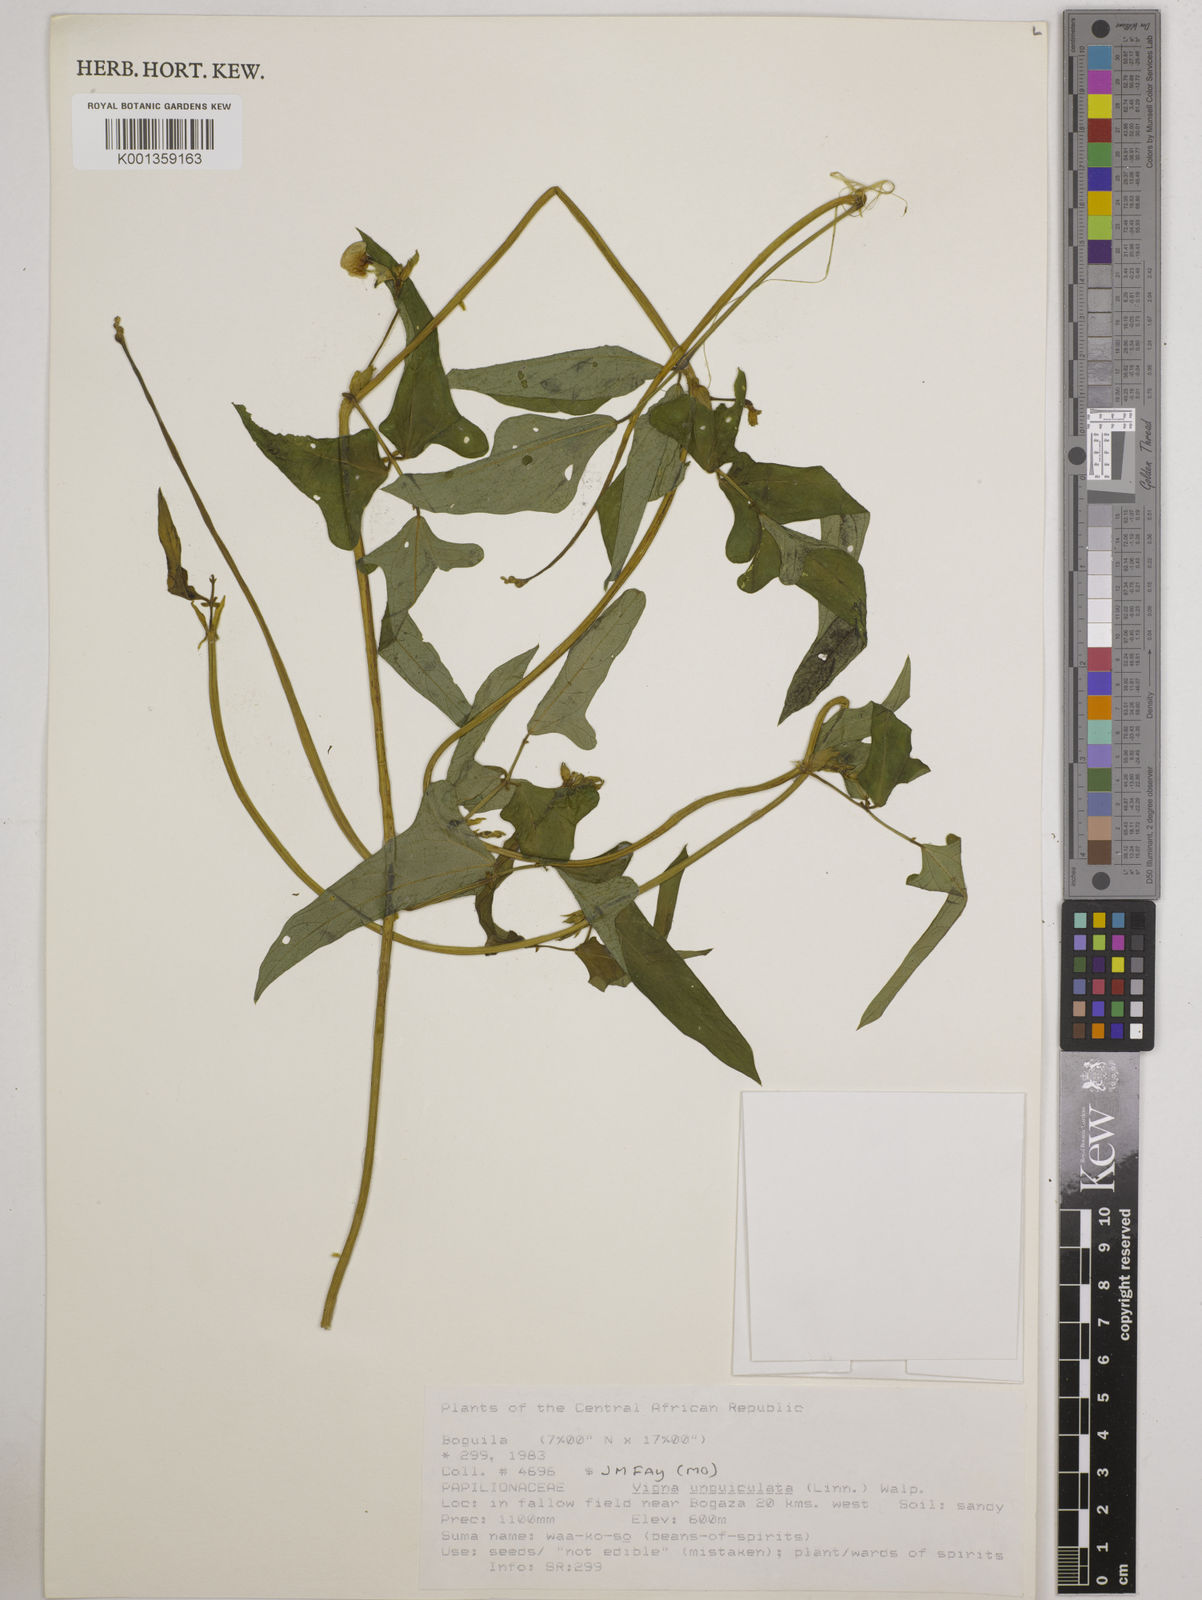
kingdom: Plantae
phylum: Tracheophyta
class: Magnoliopsida
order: Fabales
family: Fabaceae
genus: Vigna
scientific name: Vigna
